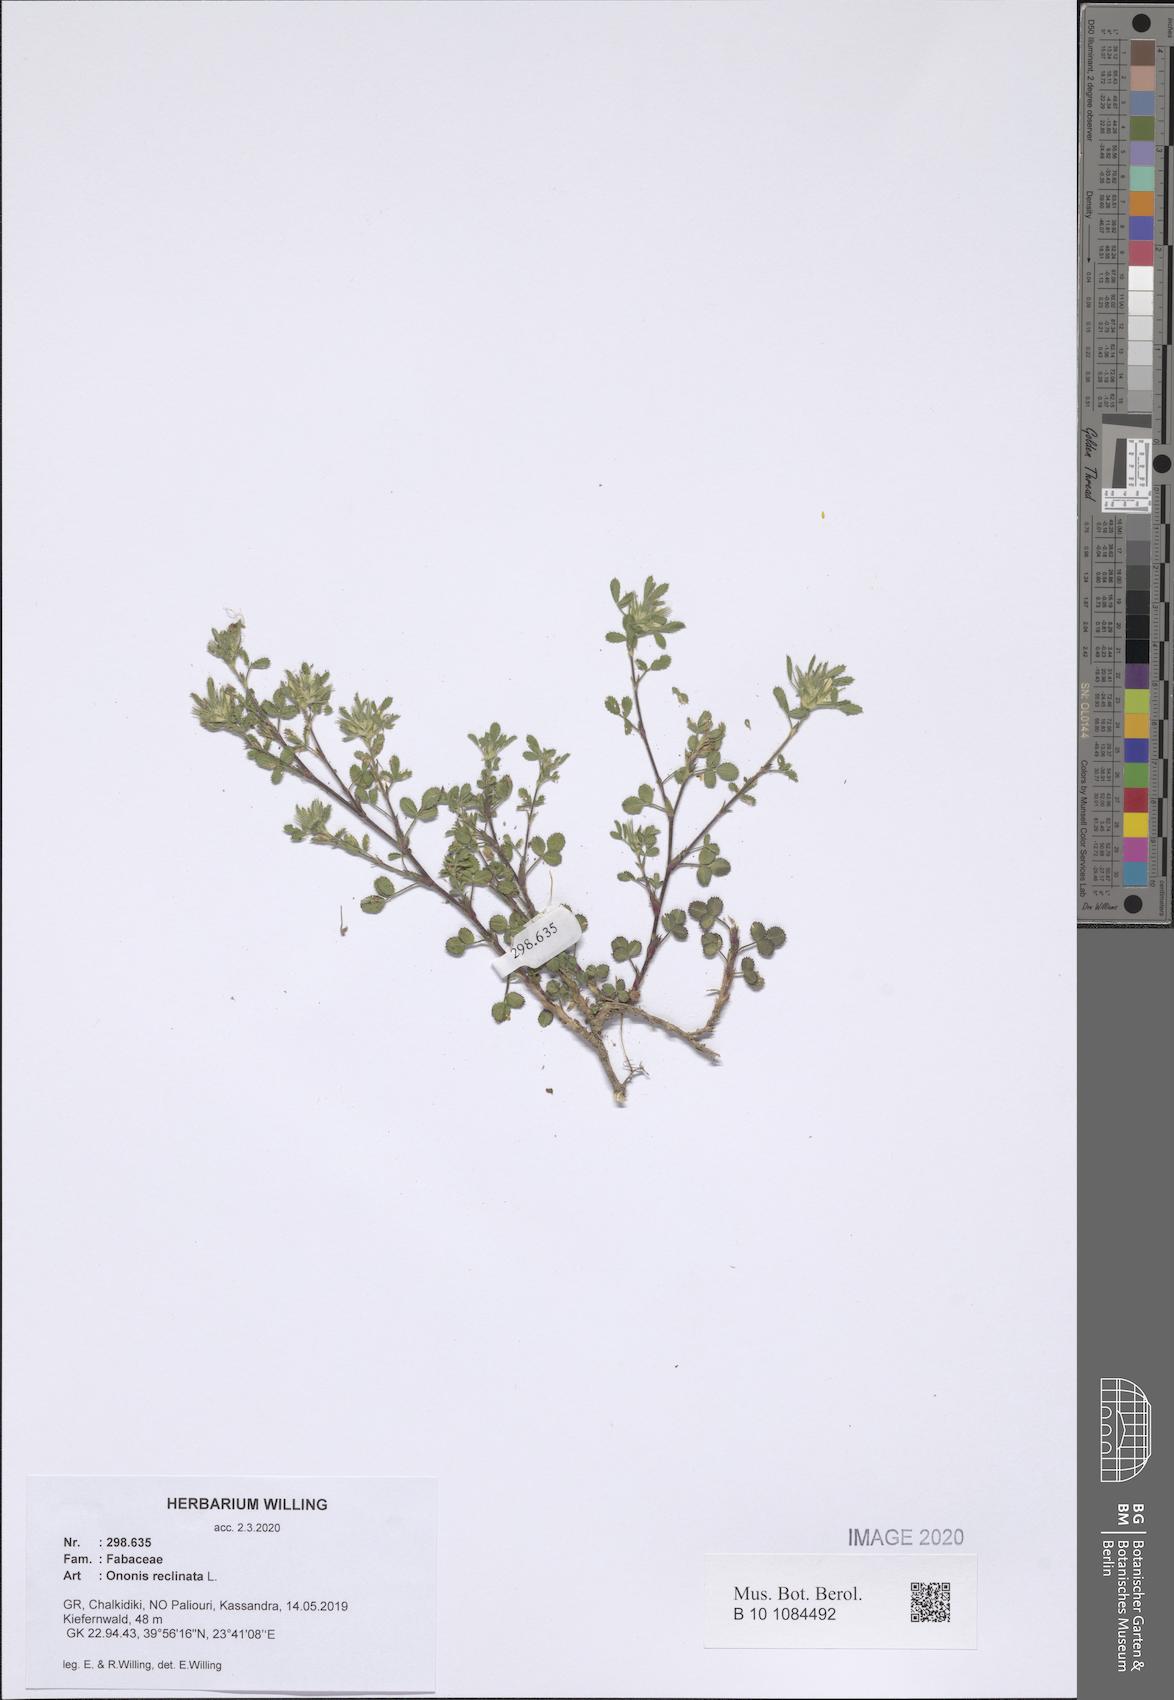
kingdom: Plantae
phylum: Tracheophyta
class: Magnoliopsida
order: Fabales
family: Fabaceae
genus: Ononis
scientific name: Ononis reclinata
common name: Small restharrow
